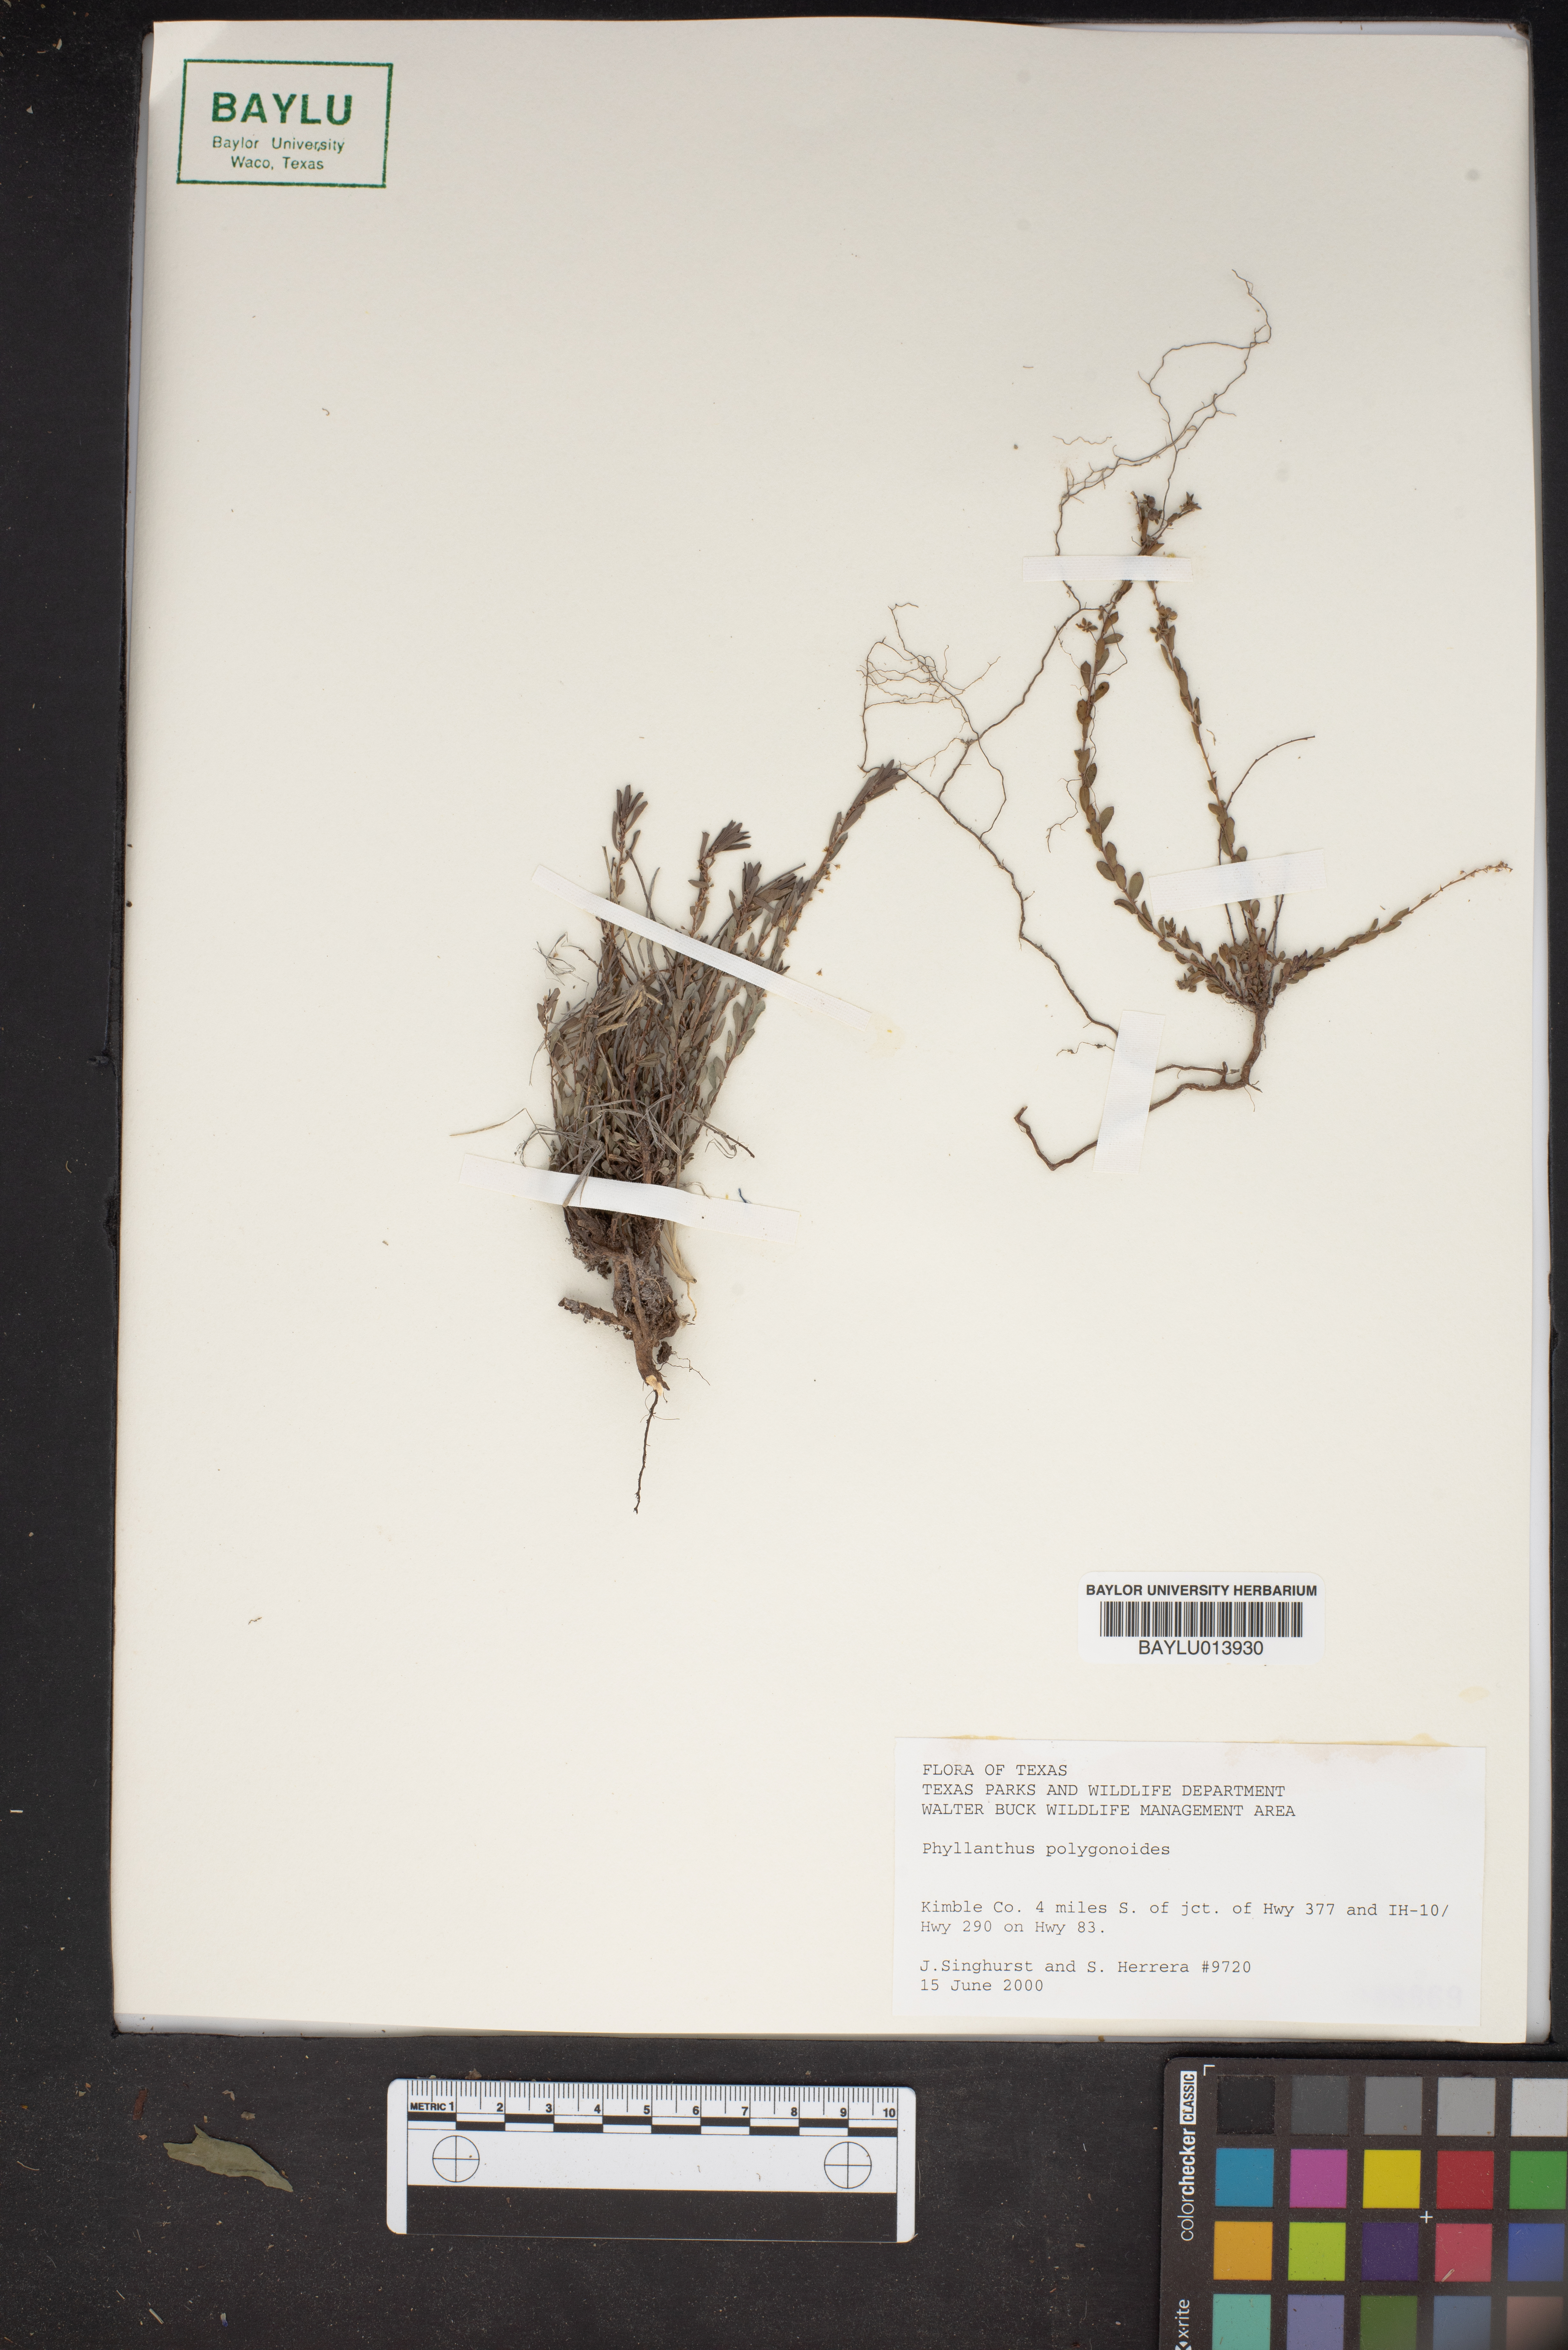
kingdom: Plantae
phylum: Tracheophyta
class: Magnoliopsida
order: Malpighiales
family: Phyllanthaceae
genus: Phyllanthus
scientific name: Phyllanthus polygonoides
